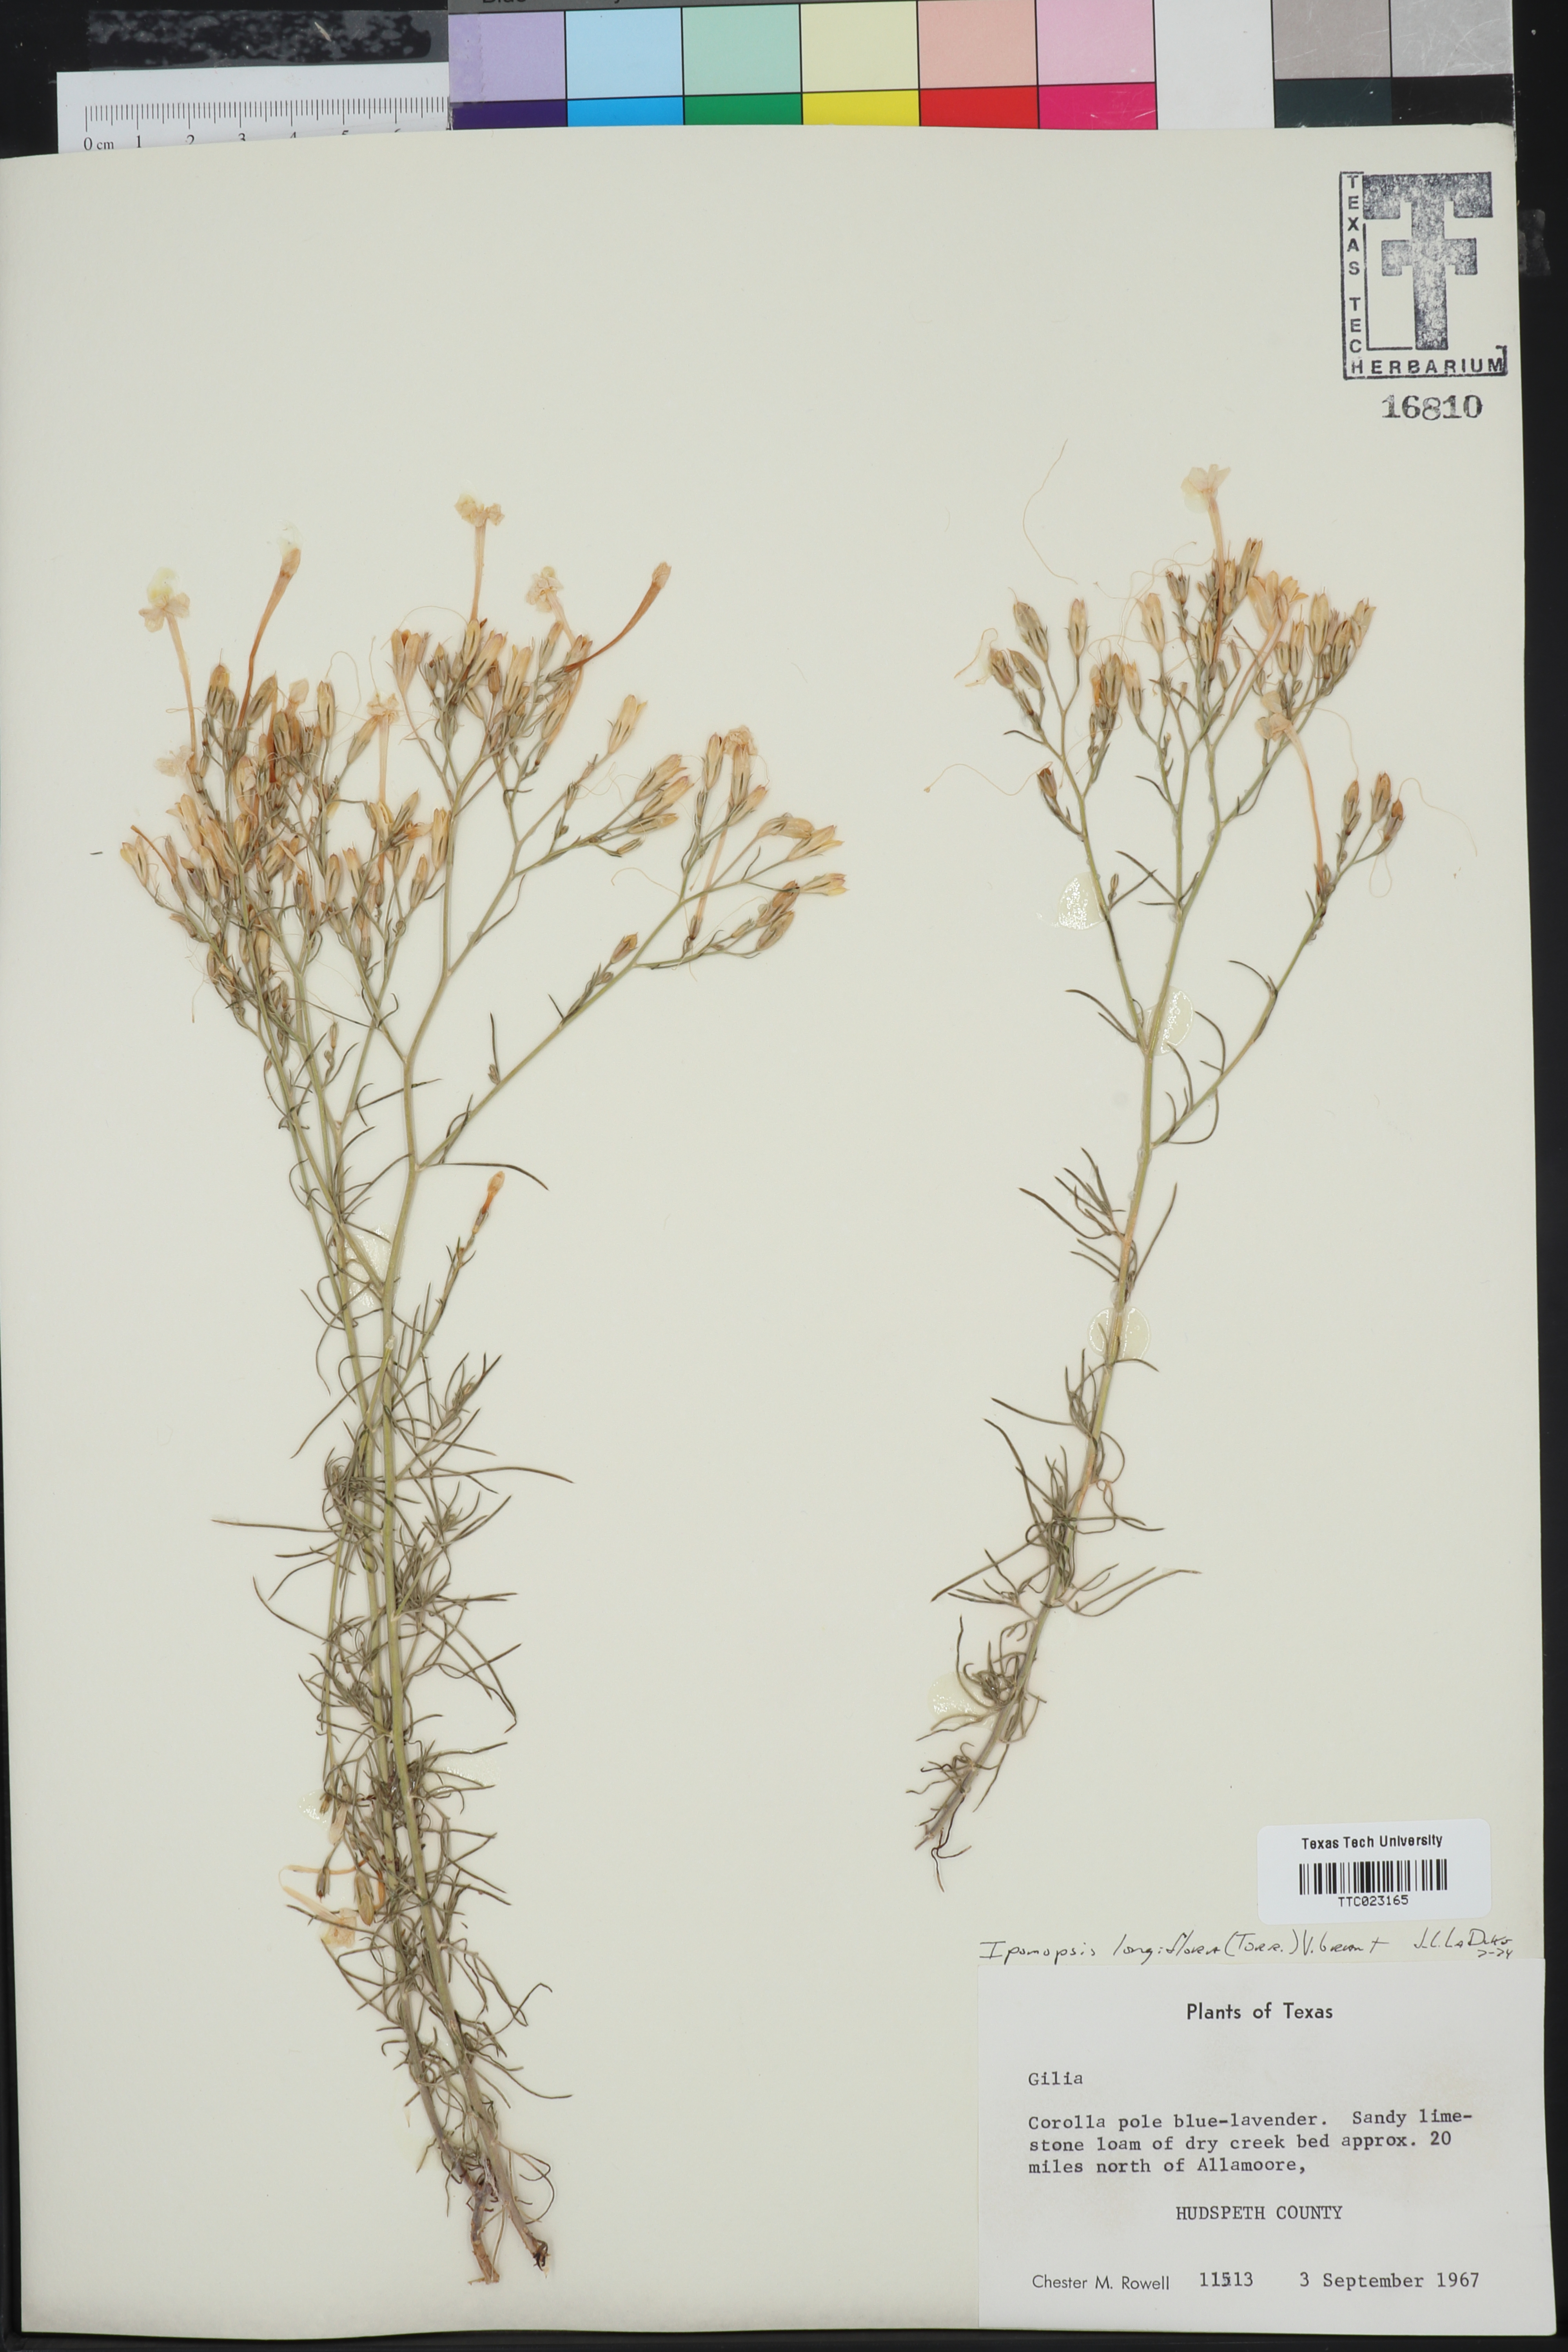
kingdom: Plantae
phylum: Tracheophyta
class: Magnoliopsida
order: Ericales
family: Polemoniaceae
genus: Ipomopsis
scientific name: Ipomopsis longiflora
